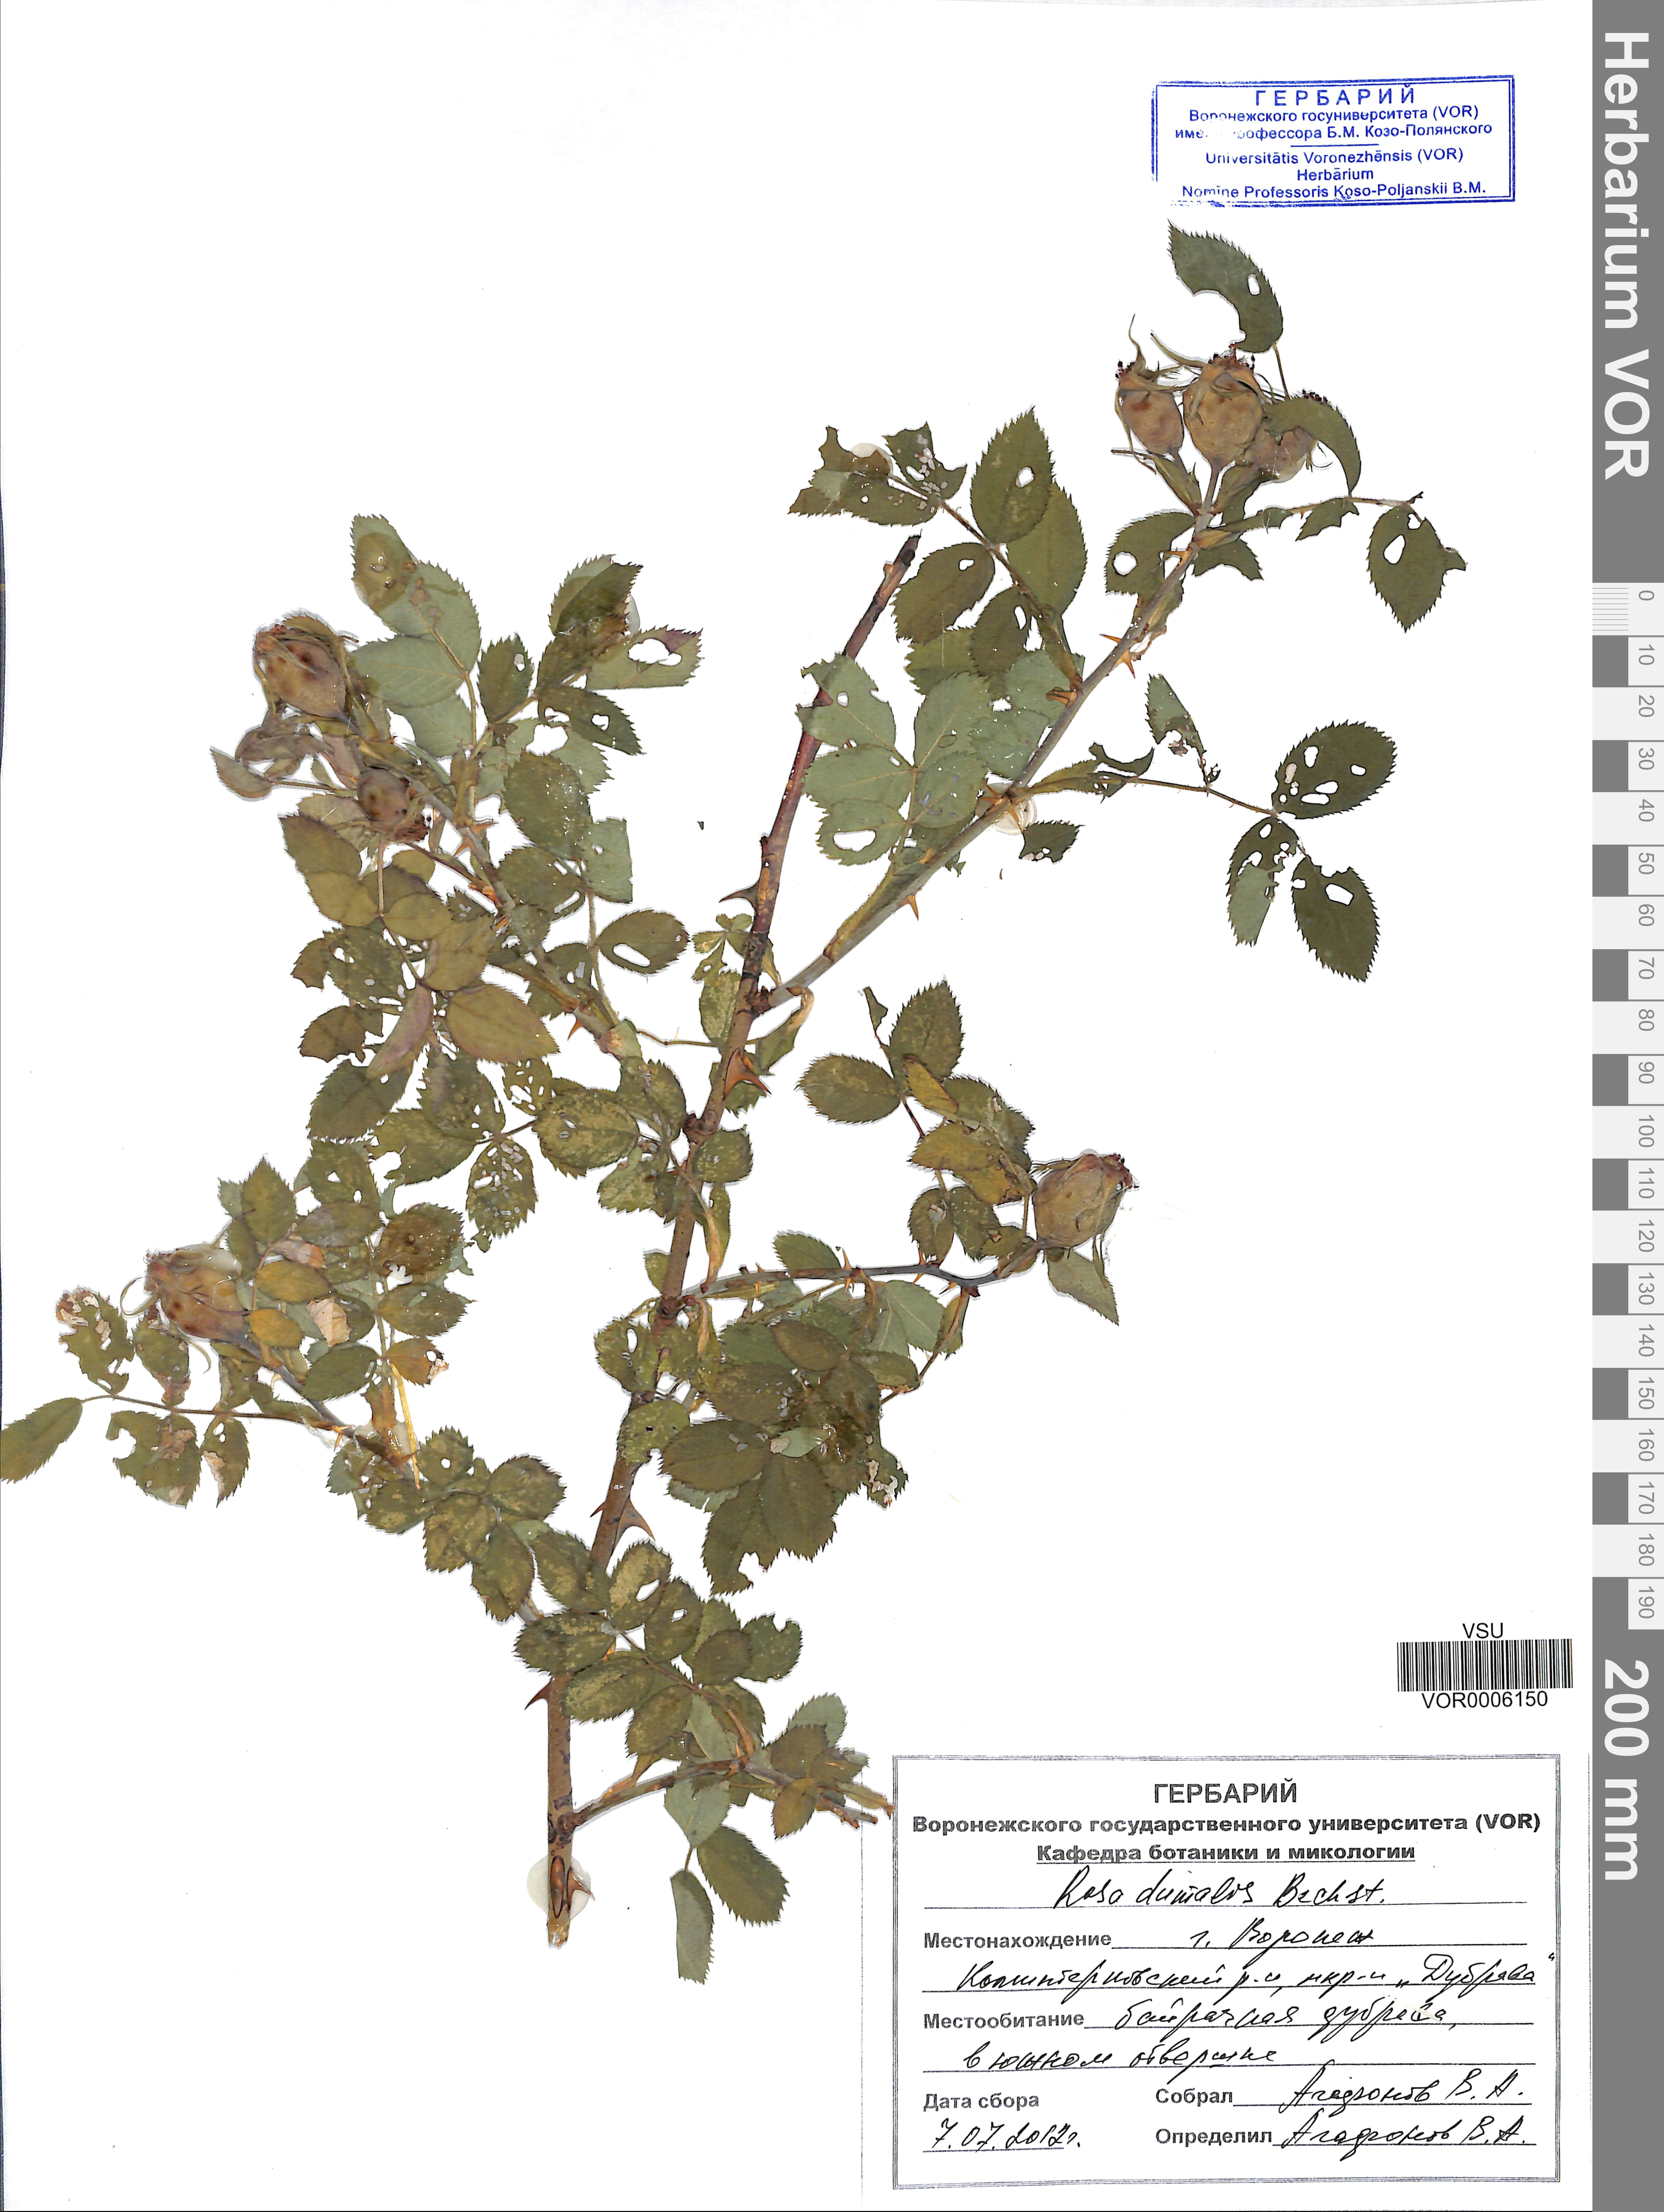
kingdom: Plantae
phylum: Tracheophyta
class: Magnoliopsida
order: Rosales
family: Rosaceae
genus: Rosa
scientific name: Rosa dumalis
